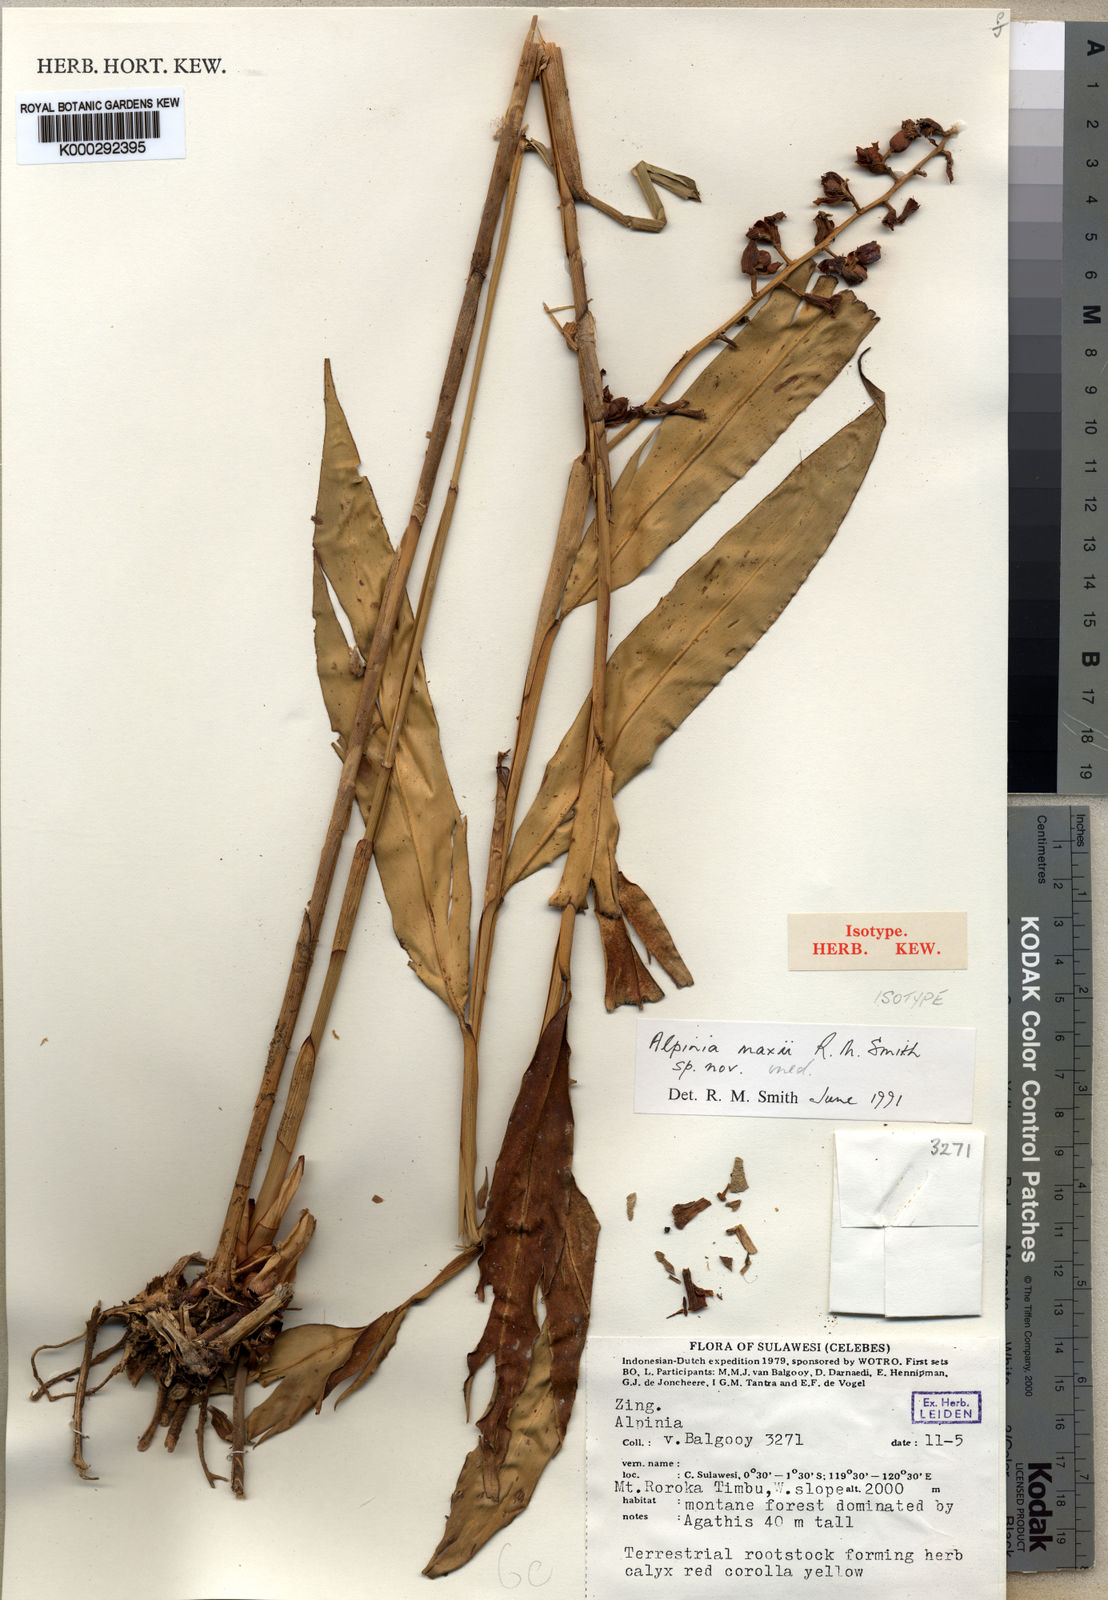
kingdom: Plantae
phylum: Tracheophyta
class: Liliopsida
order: Zingiberales
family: Zingiberaceae
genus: Alpinia
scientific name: Alpinia maxii
